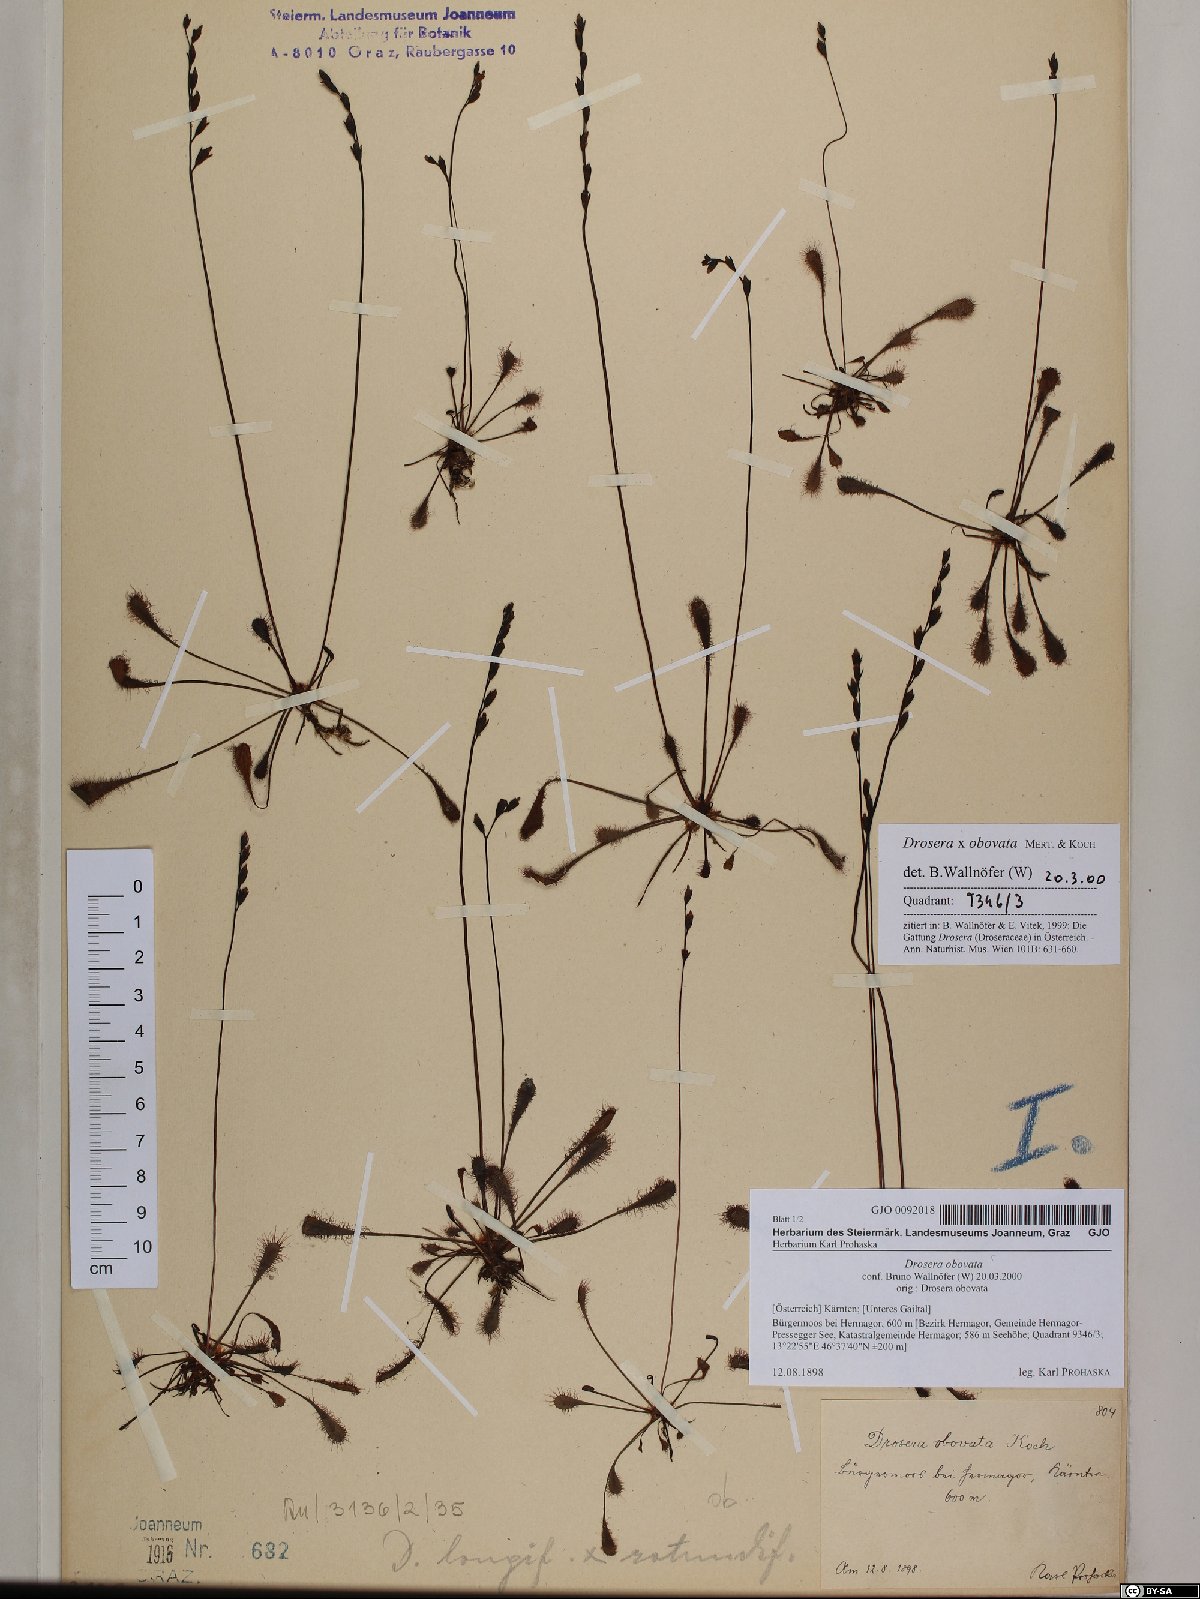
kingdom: Plantae
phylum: Tracheophyta
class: Magnoliopsida
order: Caryophyllales
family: Droseraceae
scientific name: Droseraceae
